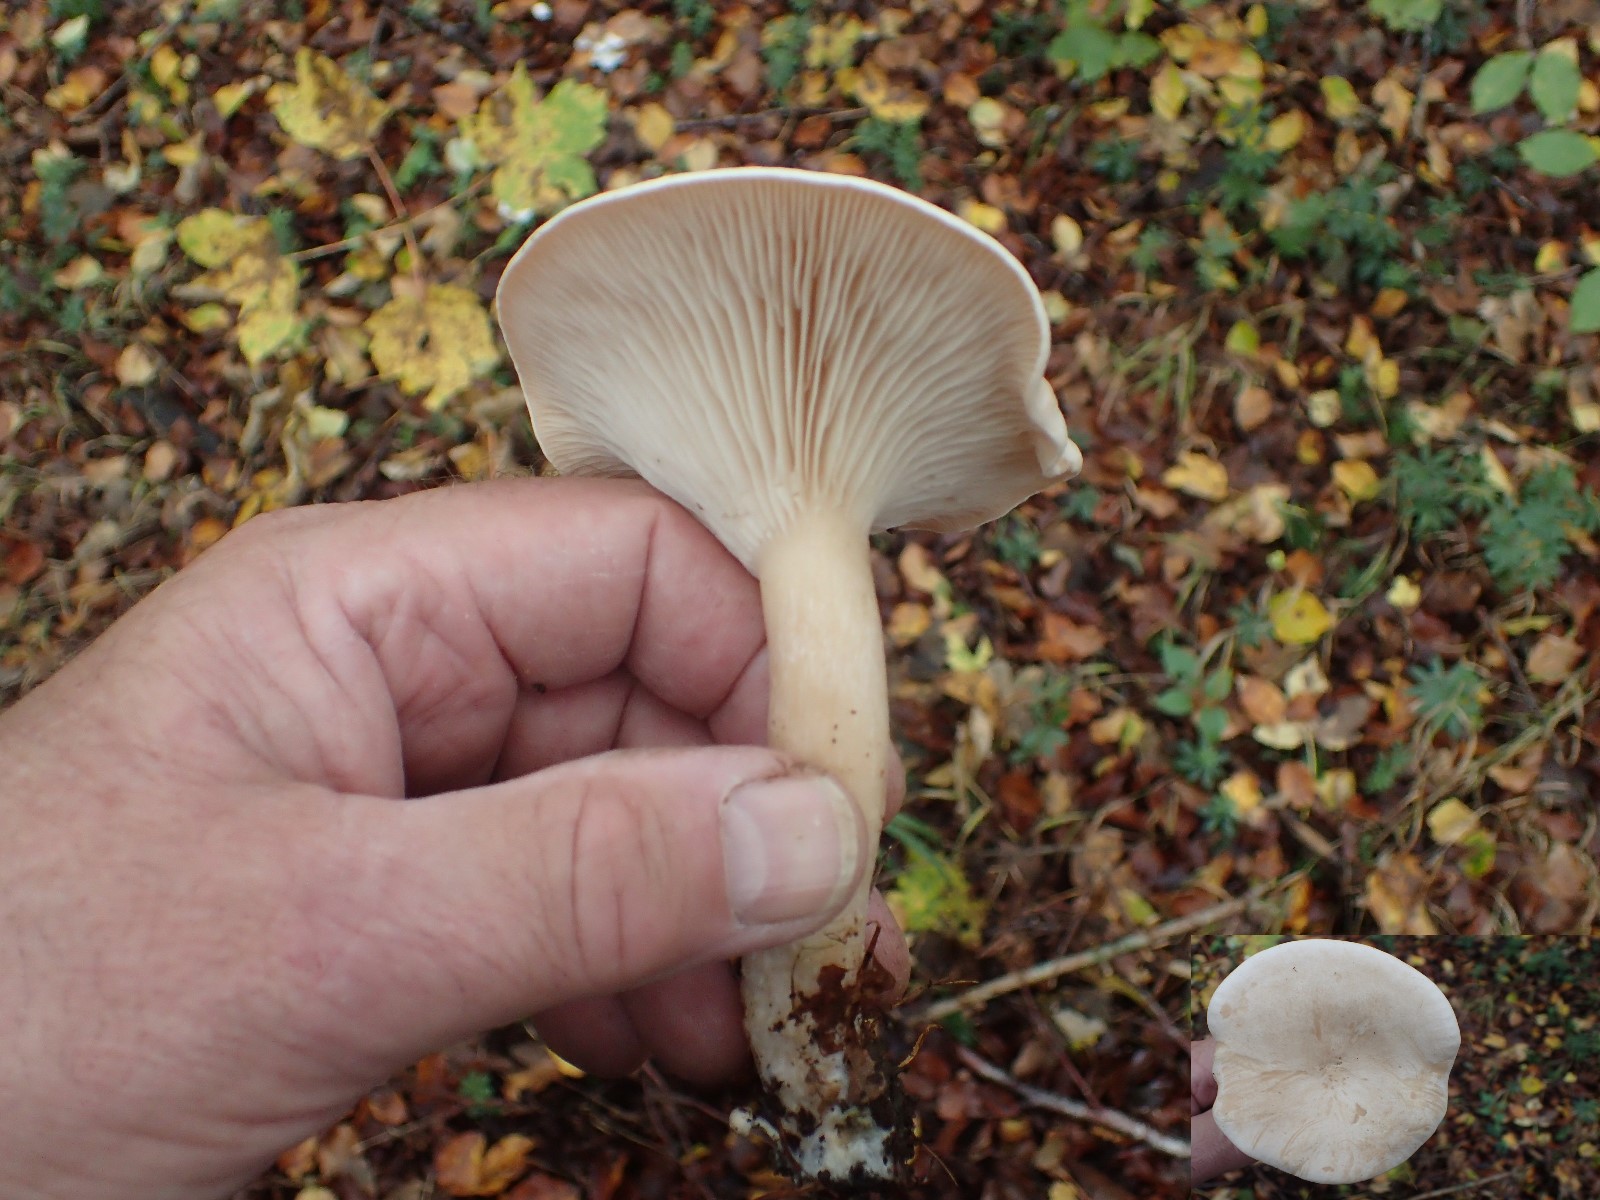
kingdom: Fungi
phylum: Basidiomycota
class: Agaricomycetes
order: Agaricales
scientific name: Agaricales
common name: champignonordenen
